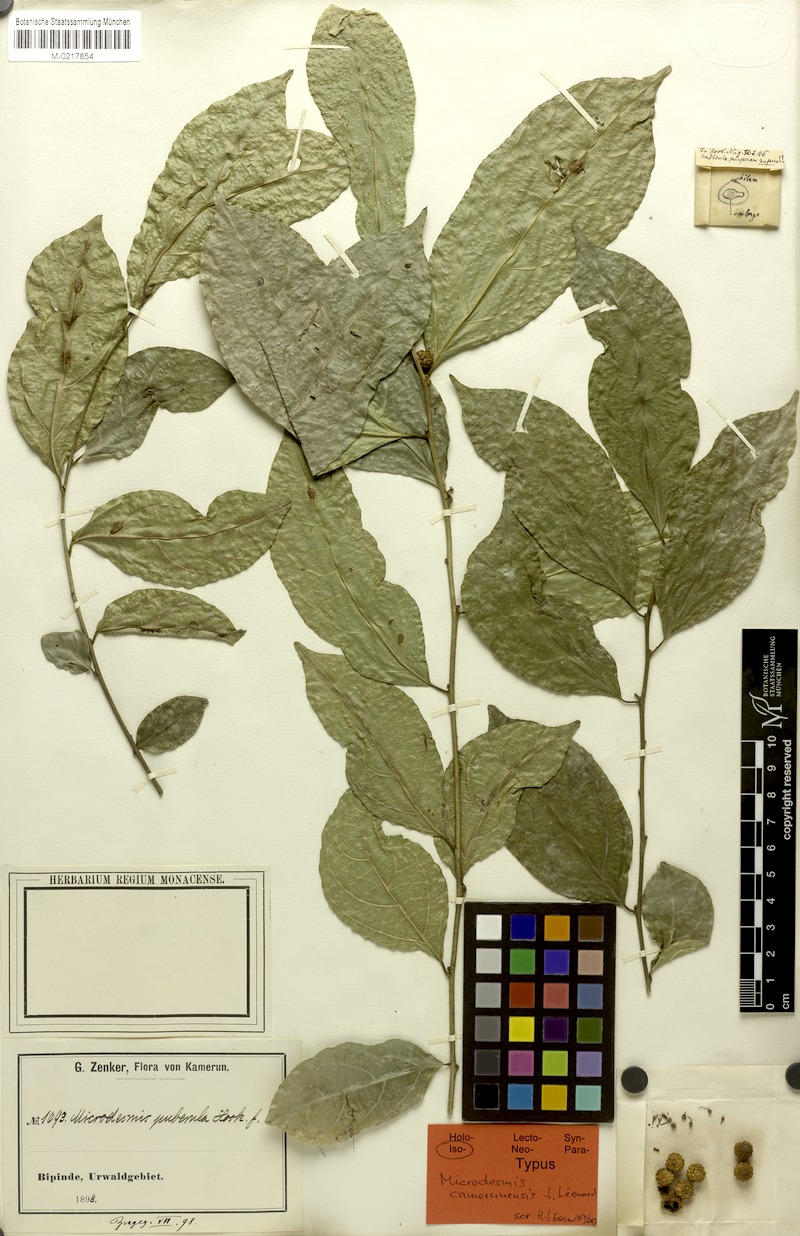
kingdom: Plantae
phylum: Tracheophyta
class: Magnoliopsida
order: Malpighiales
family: Pandaceae
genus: Microdesmis
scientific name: Microdesmis camerunensis
